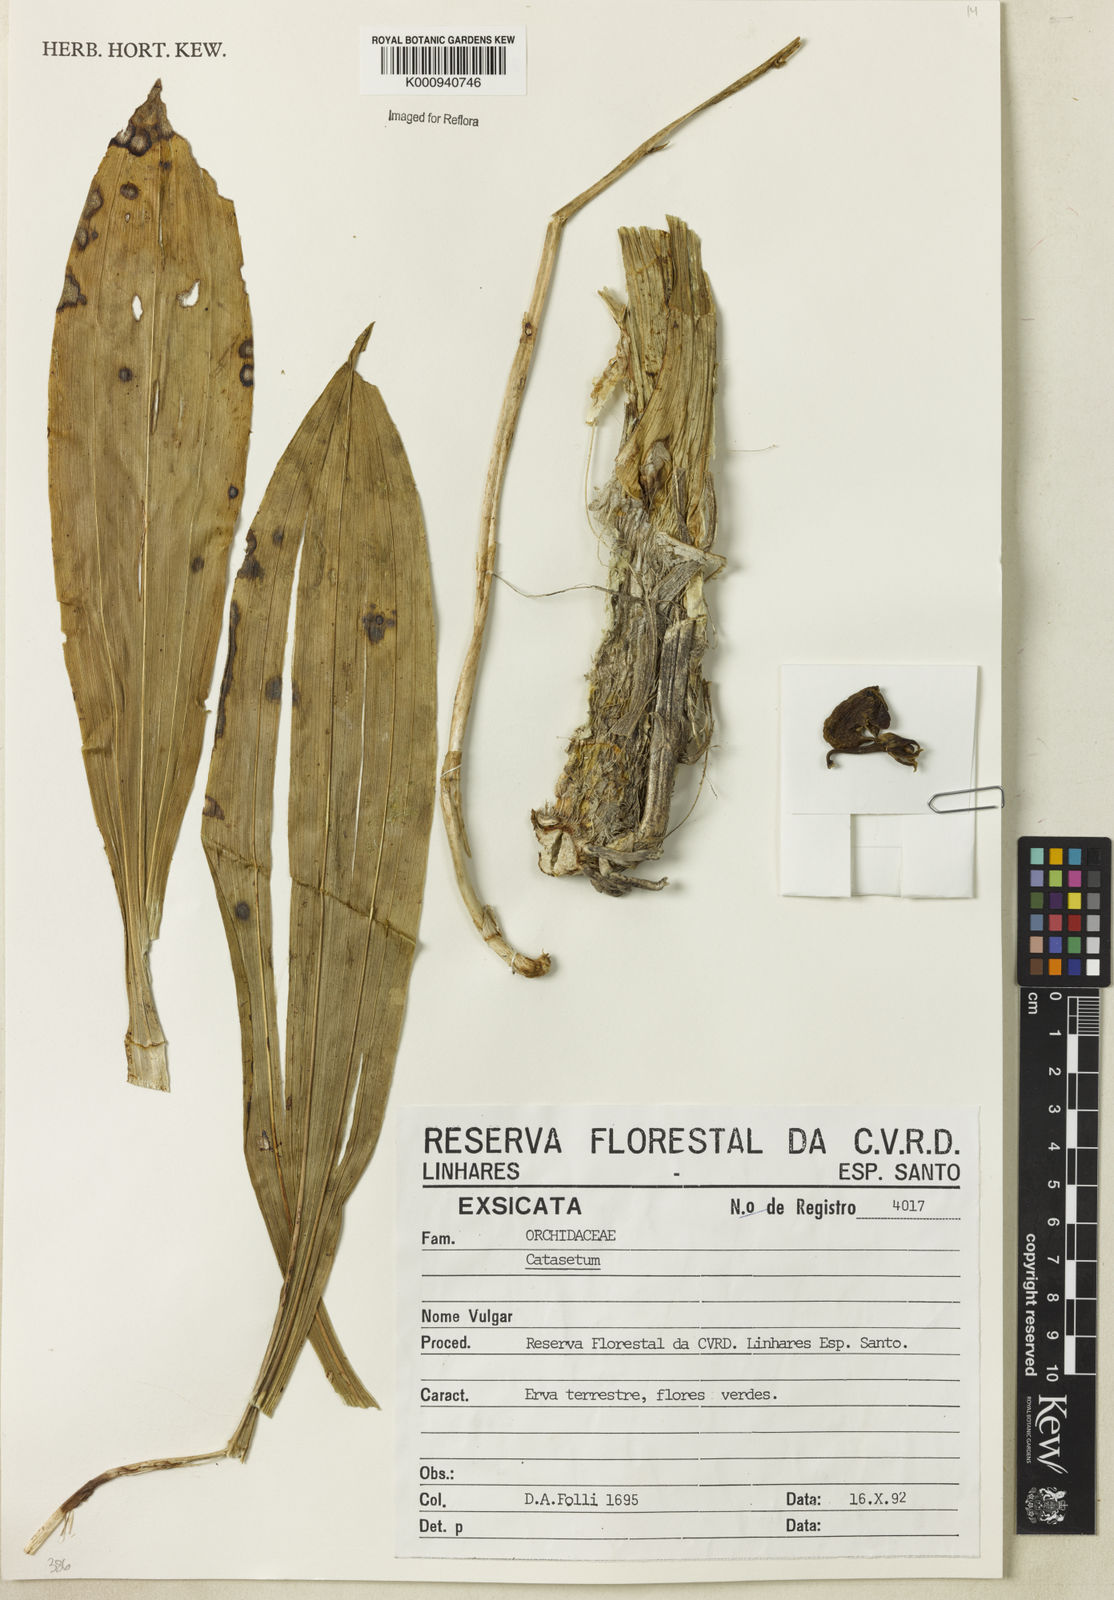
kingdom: Plantae
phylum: Tracheophyta
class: Liliopsida
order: Asparagales
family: Orchidaceae
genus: Catasetum
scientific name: Catasetum
